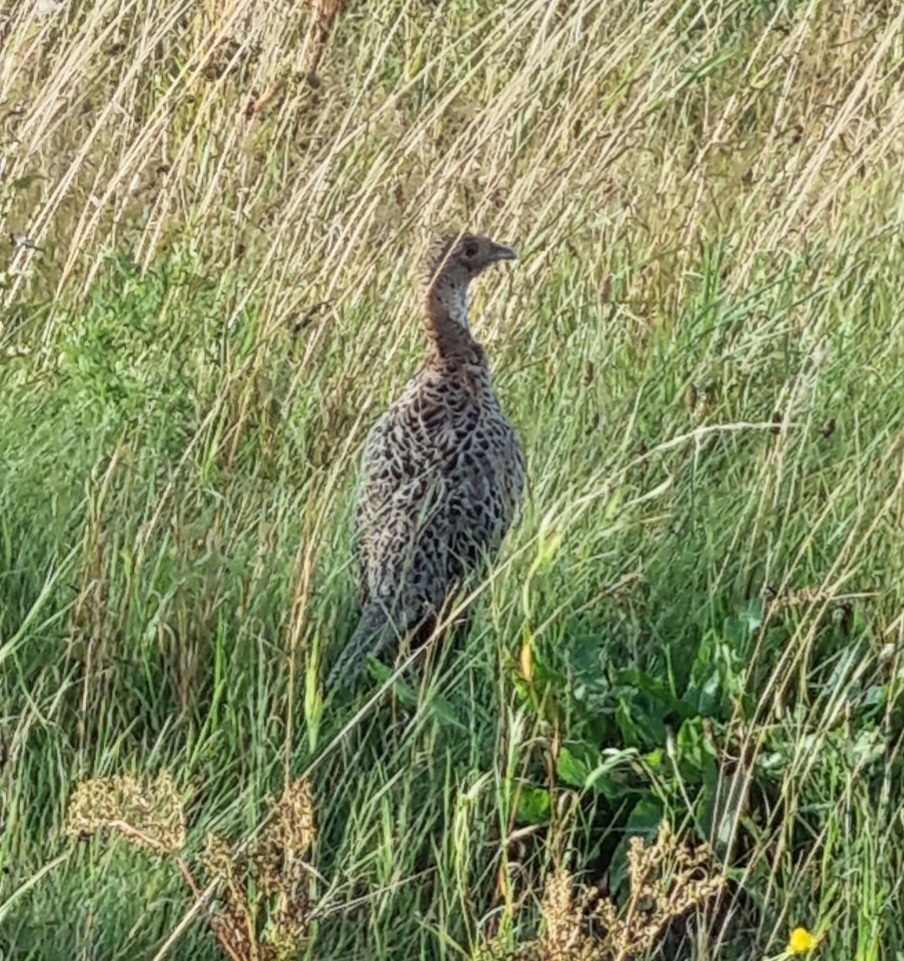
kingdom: Animalia
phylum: Chordata
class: Aves
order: Galliformes
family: Phasianidae
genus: Phasianus
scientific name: Phasianus colchicus
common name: Fasan
